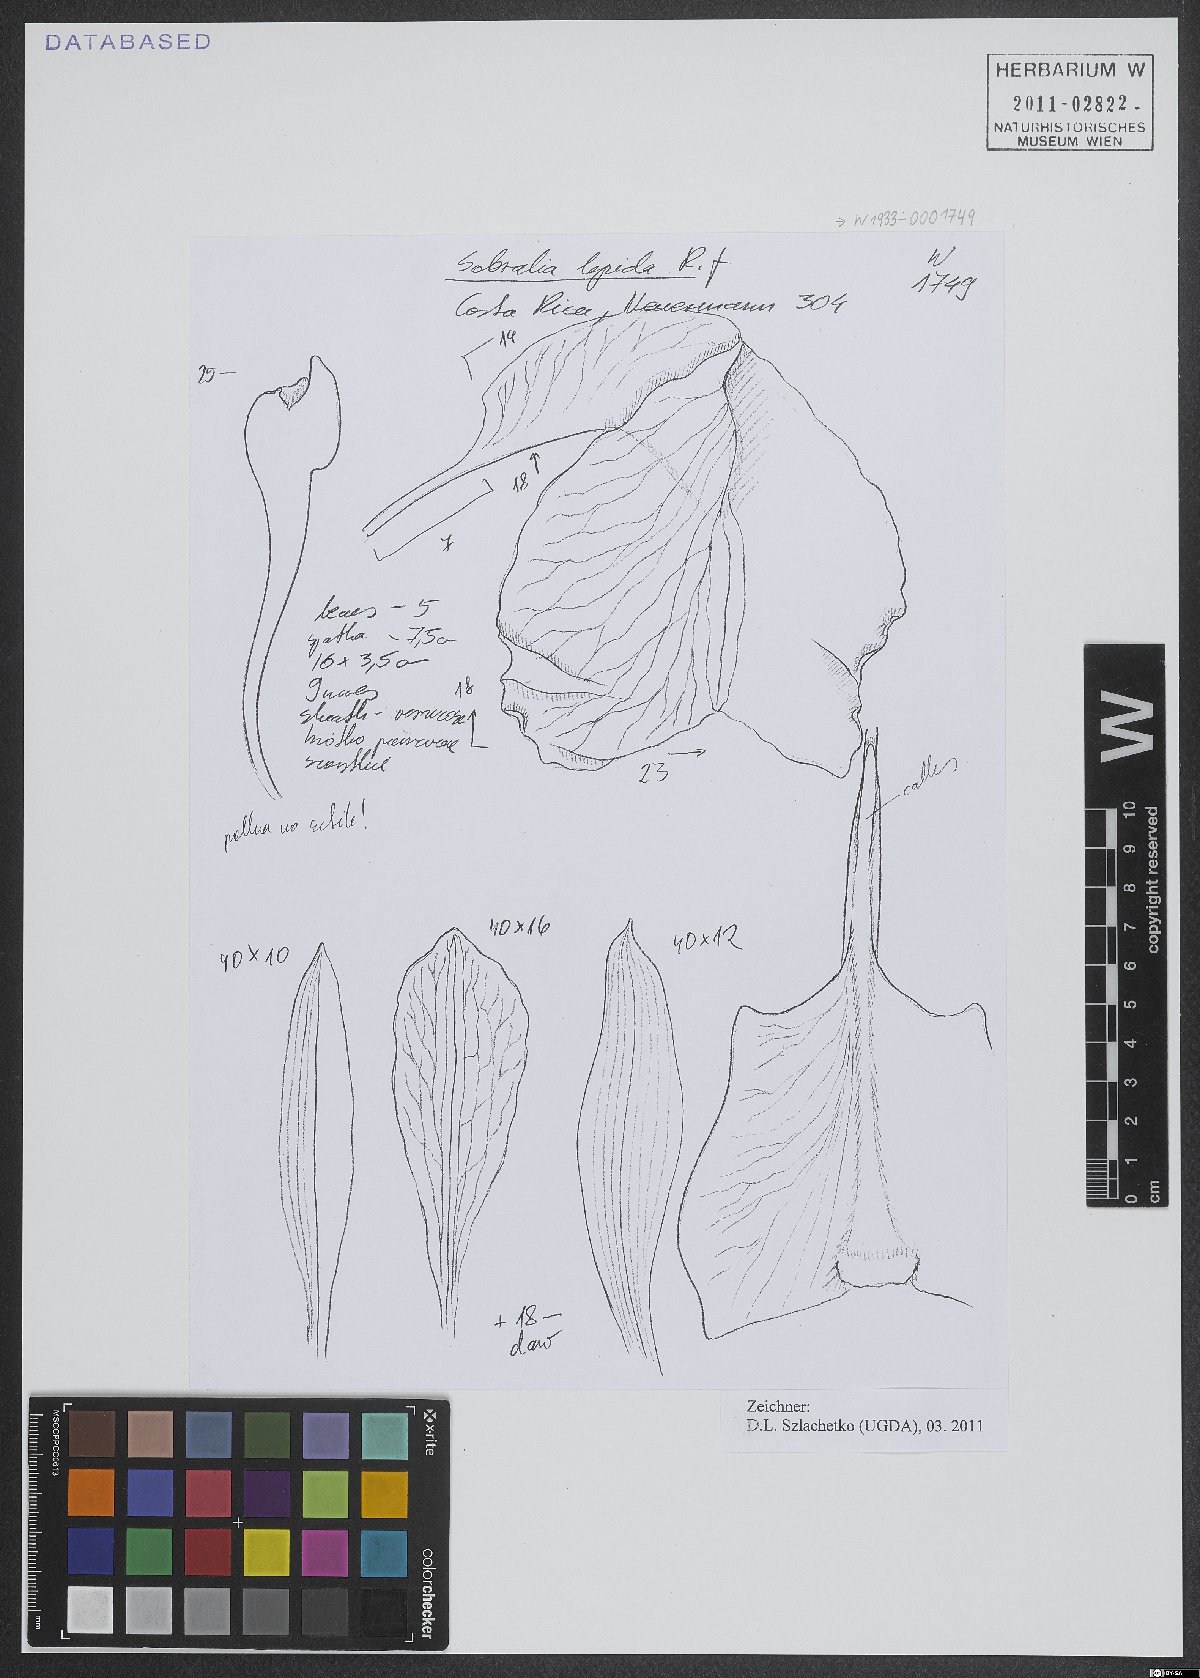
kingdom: Plantae
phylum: Tracheophyta
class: Liliopsida
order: Asparagales
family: Orchidaceae
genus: Sobralia
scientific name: Sobralia amabilis
